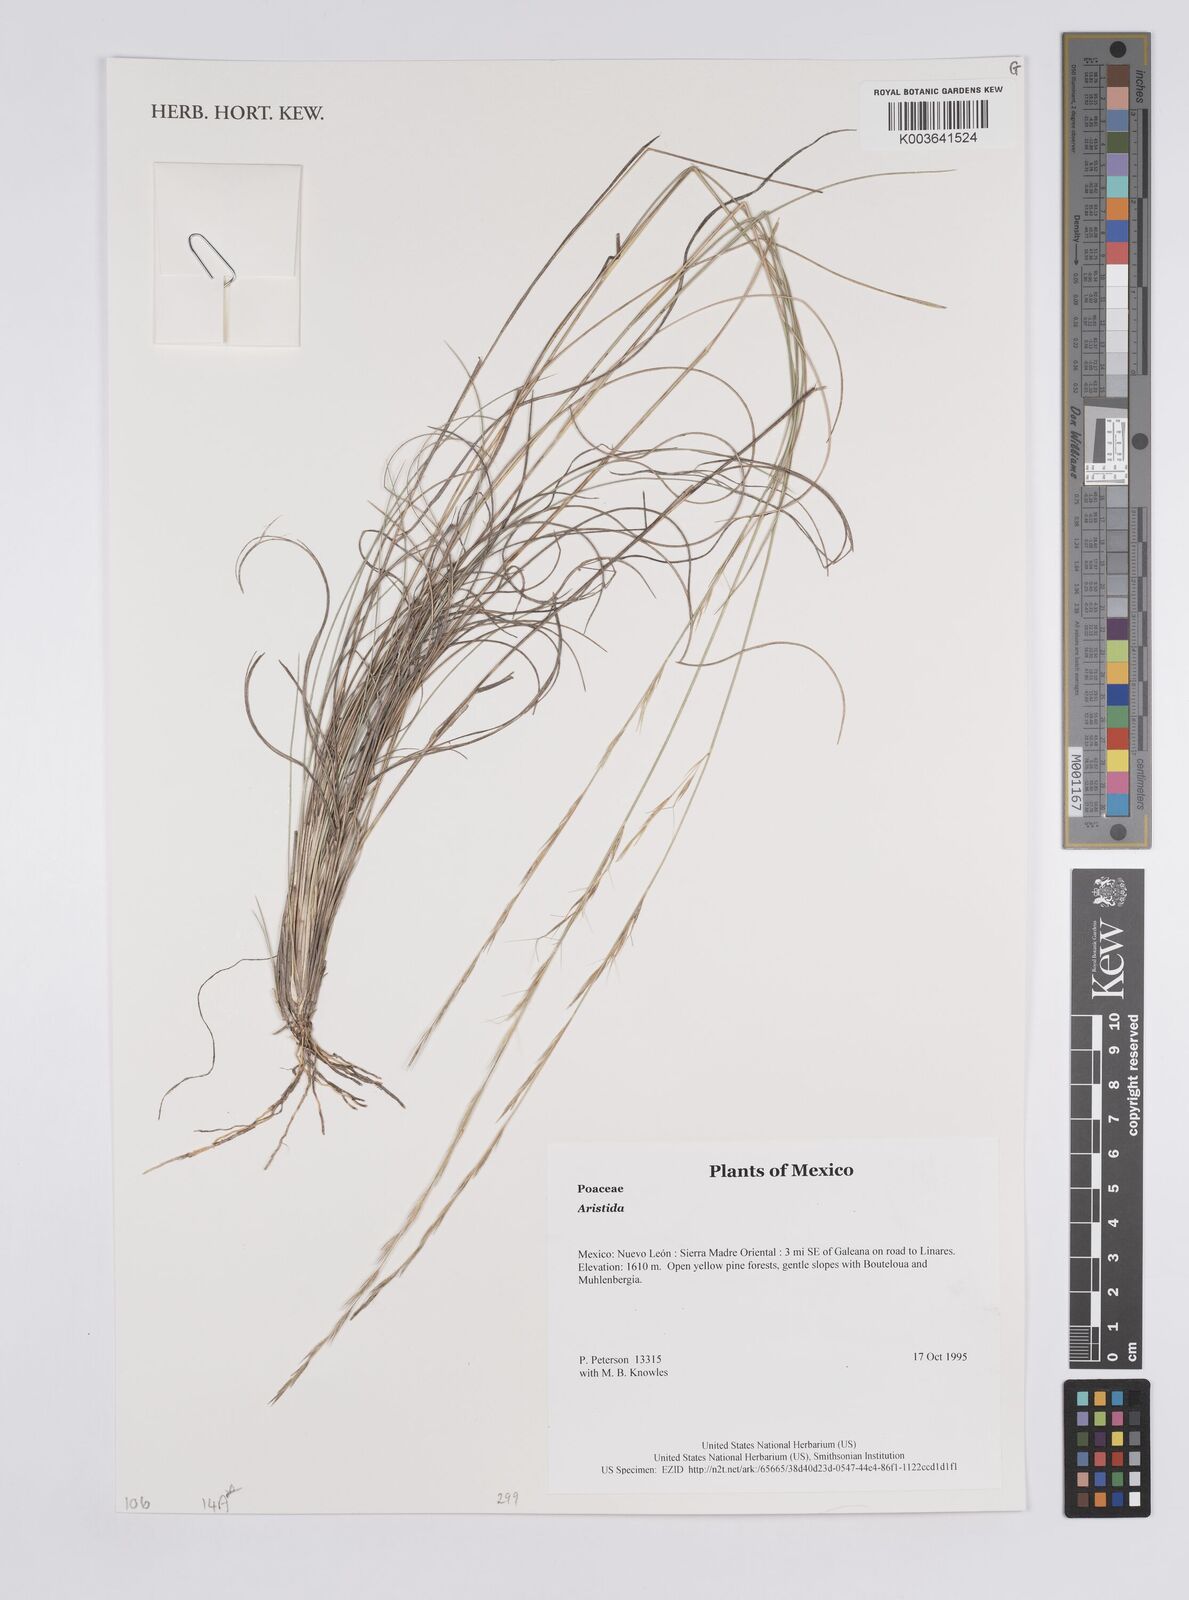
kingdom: Plantae
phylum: Tracheophyta
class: Liliopsida
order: Poales
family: Poaceae
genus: Aristida
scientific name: Aristida
